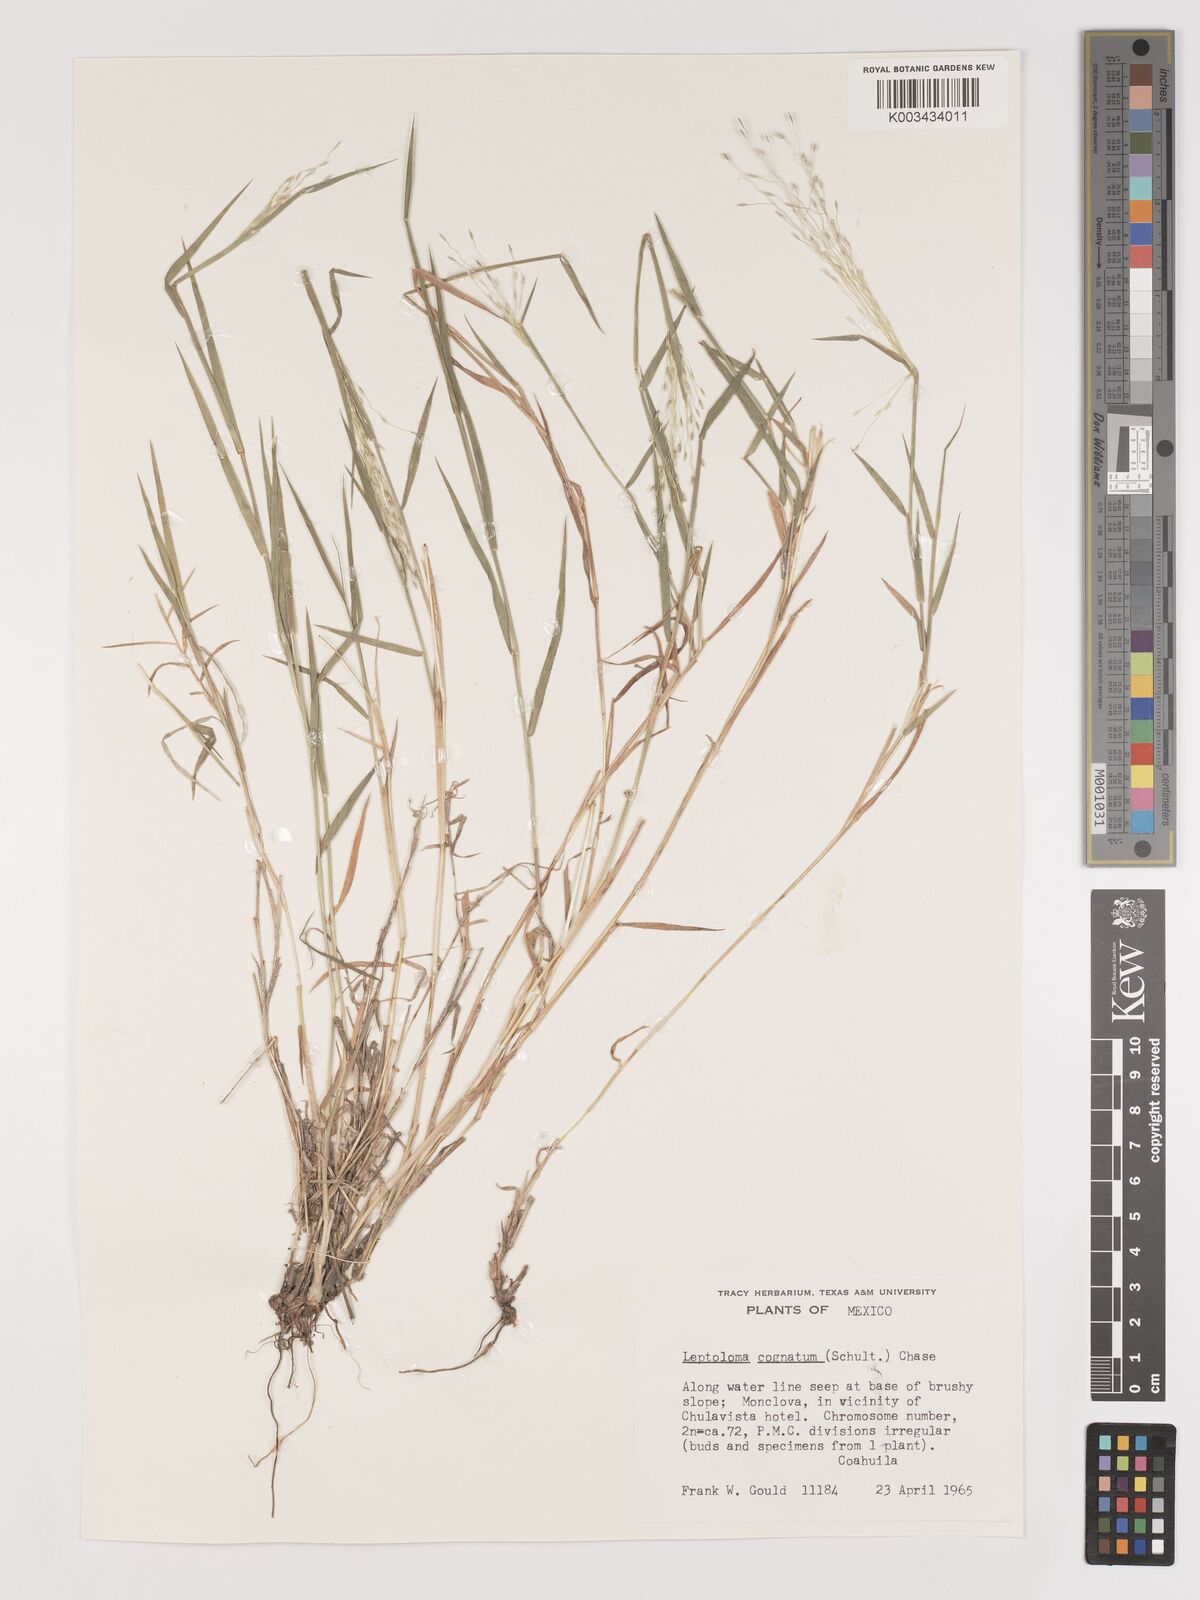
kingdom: Plantae
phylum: Tracheophyta
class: Liliopsida
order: Poales
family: Poaceae
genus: Digitaria
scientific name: Digitaria cognata
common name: Fall witchgrass
